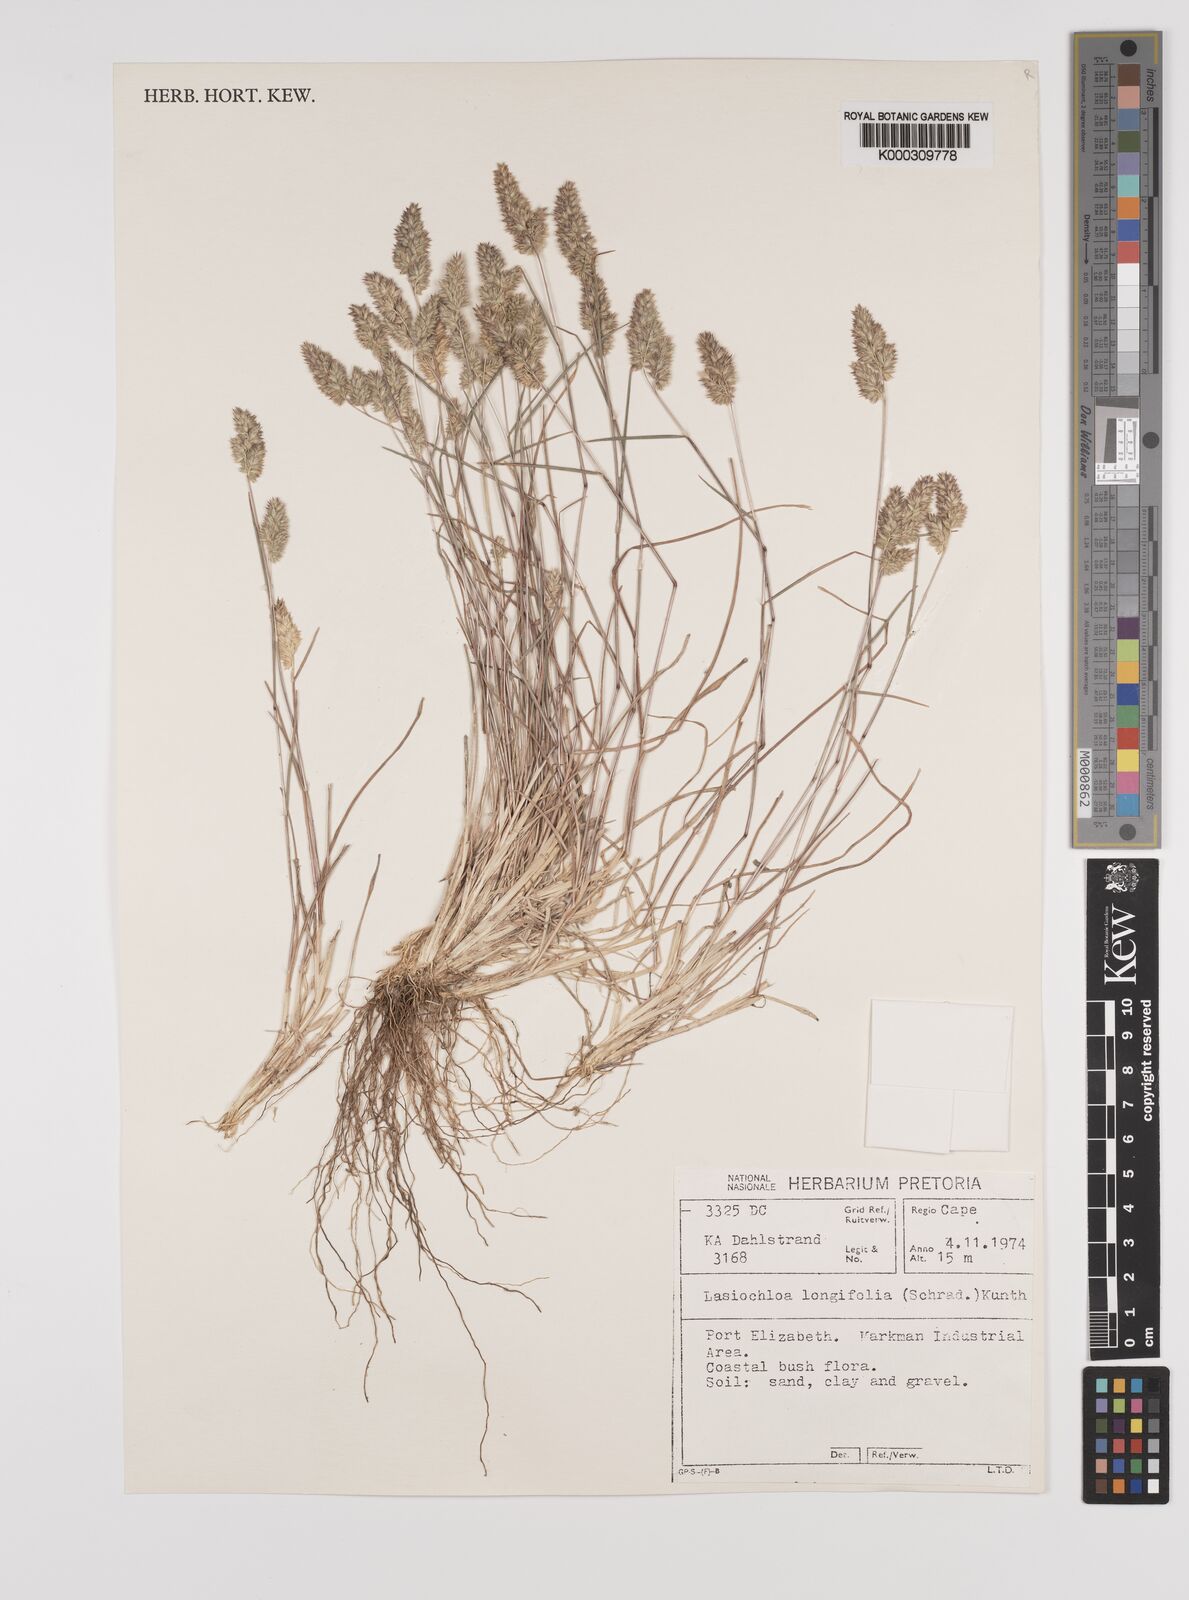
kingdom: Plantae
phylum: Tracheophyta
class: Liliopsida
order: Poales
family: Poaceae
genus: Tribolium
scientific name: Tribolium hispidum
